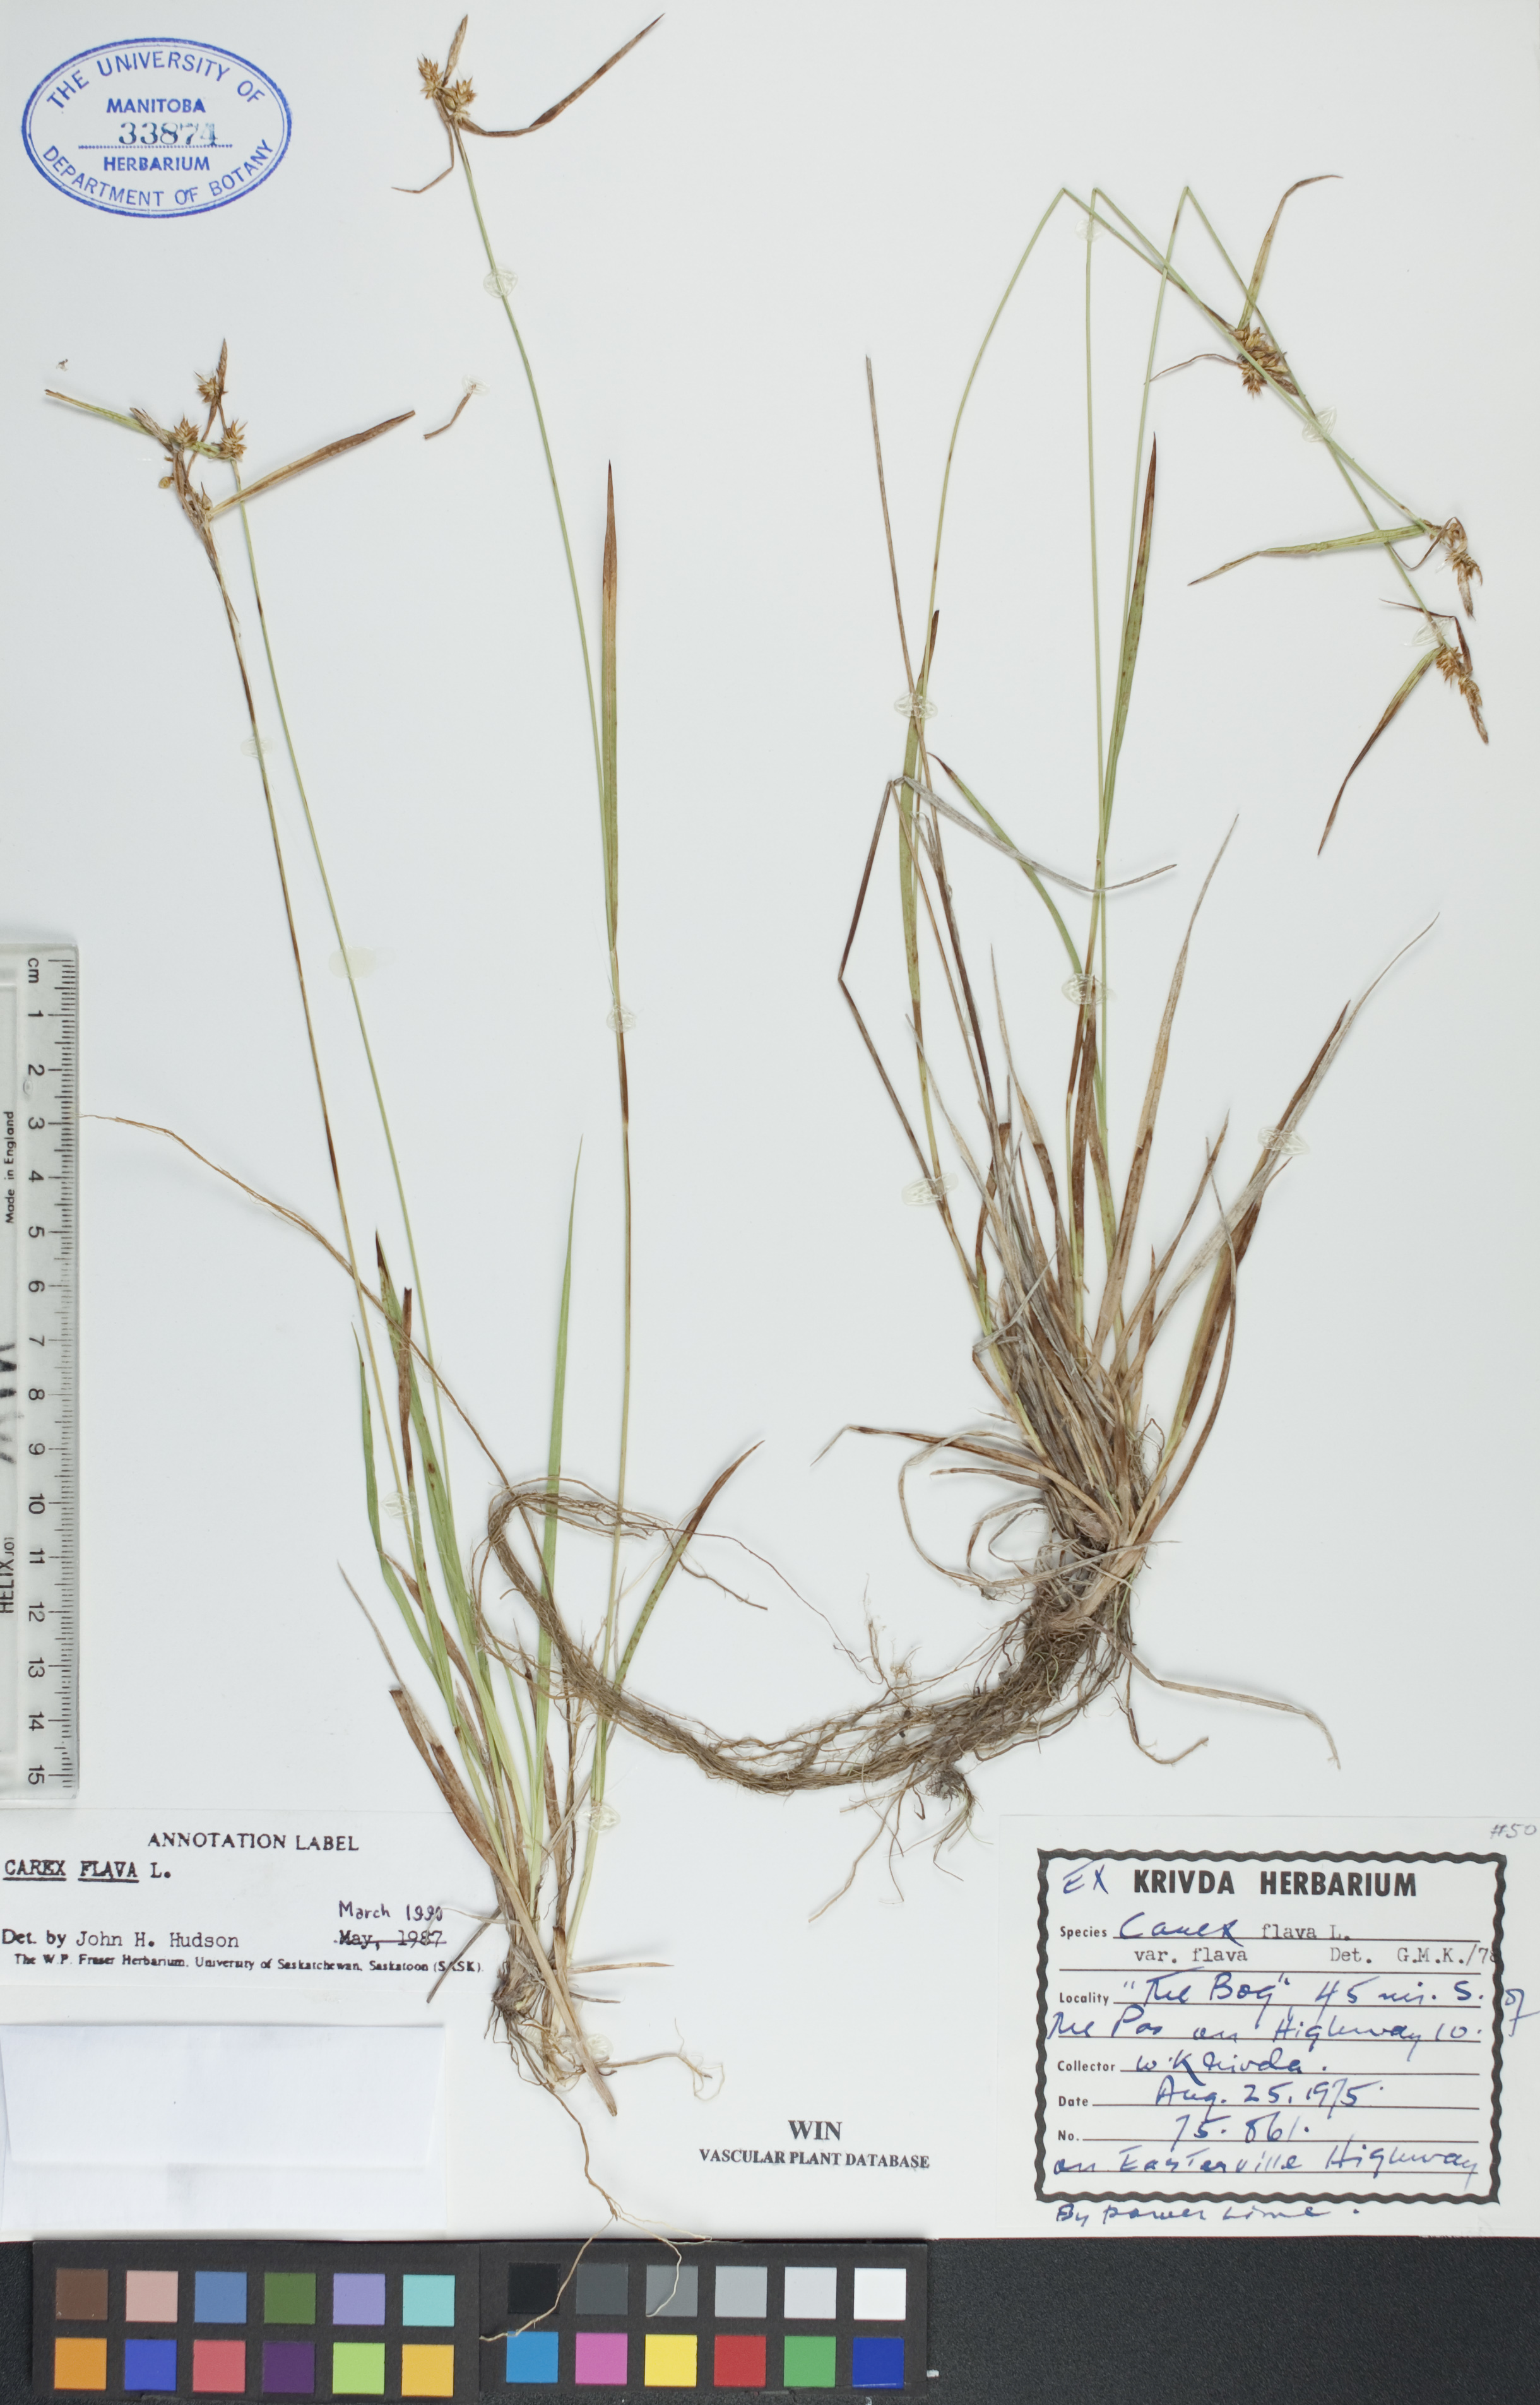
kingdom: Plantae
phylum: Tracheophyta
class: Liliopsida
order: Poales
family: Cyperaceae
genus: Carex
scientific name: Carex flava
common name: Large yellow-sedge
